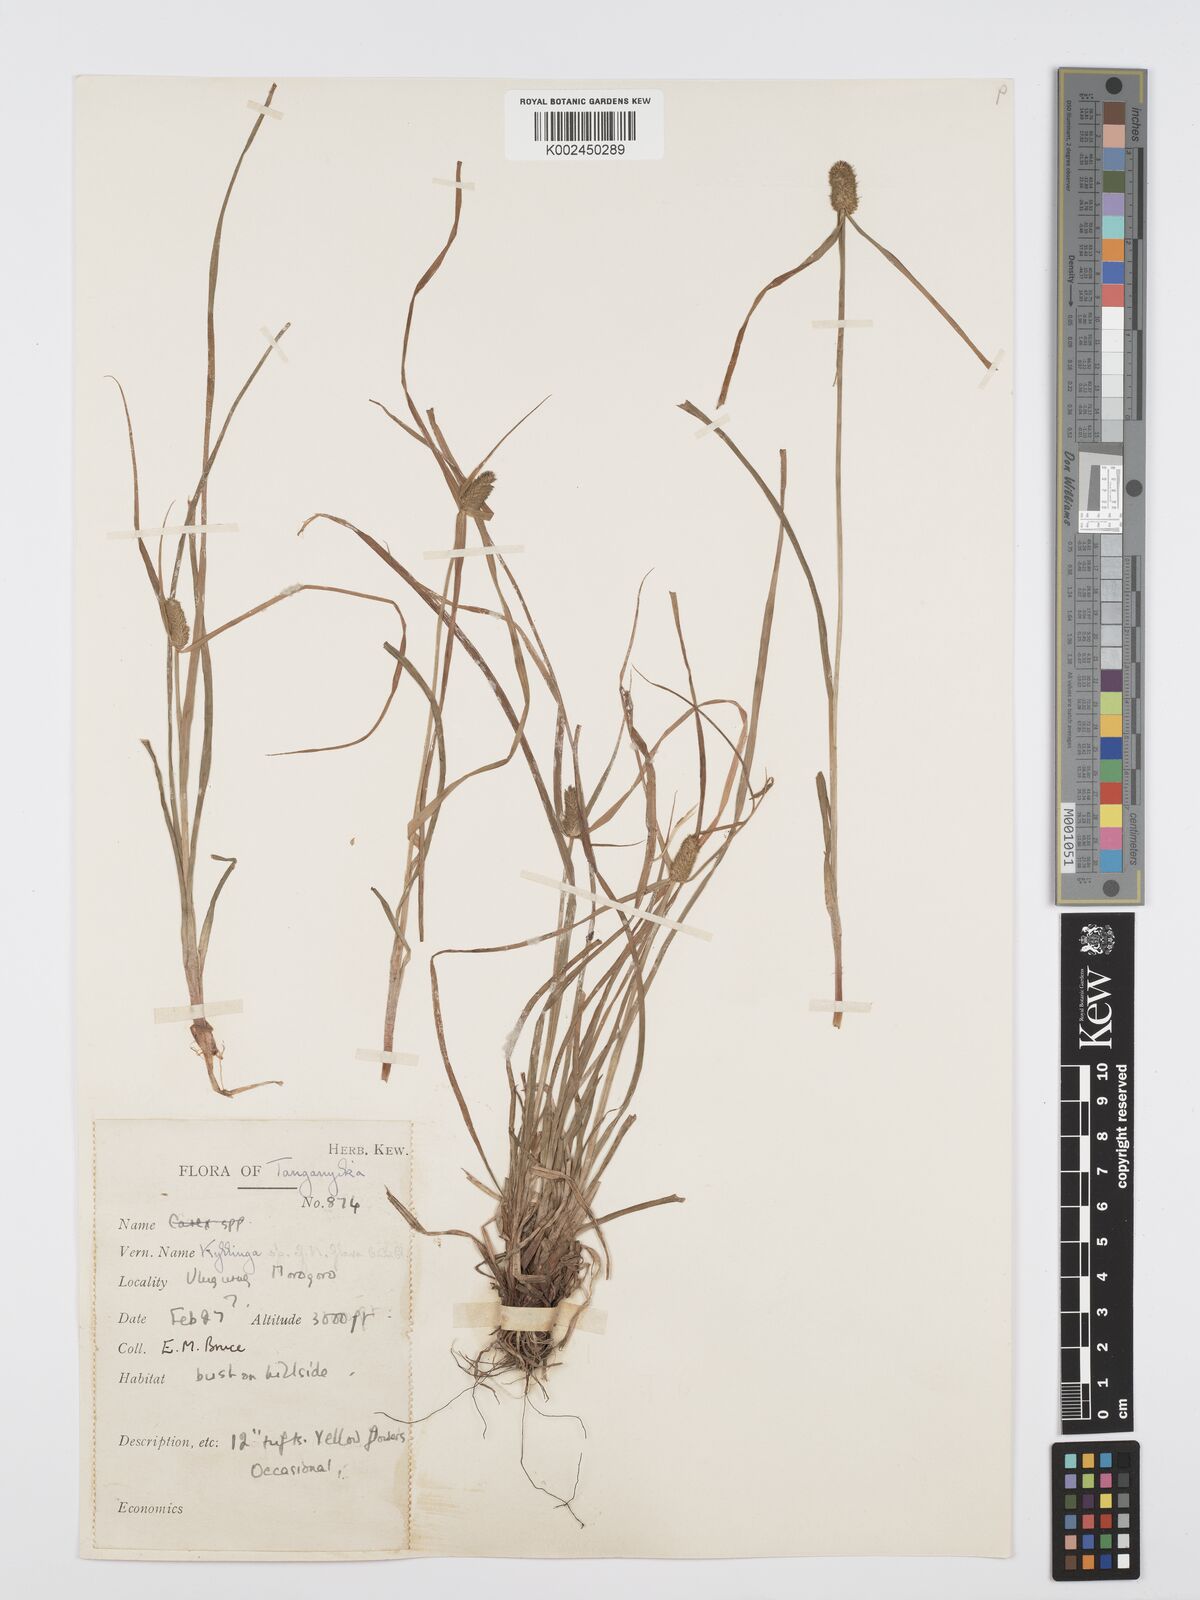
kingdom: Plantae
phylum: Tracheophyta
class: Liliopsida
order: Poales
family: Cyperaceae
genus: Cyperus
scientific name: Cyperus
